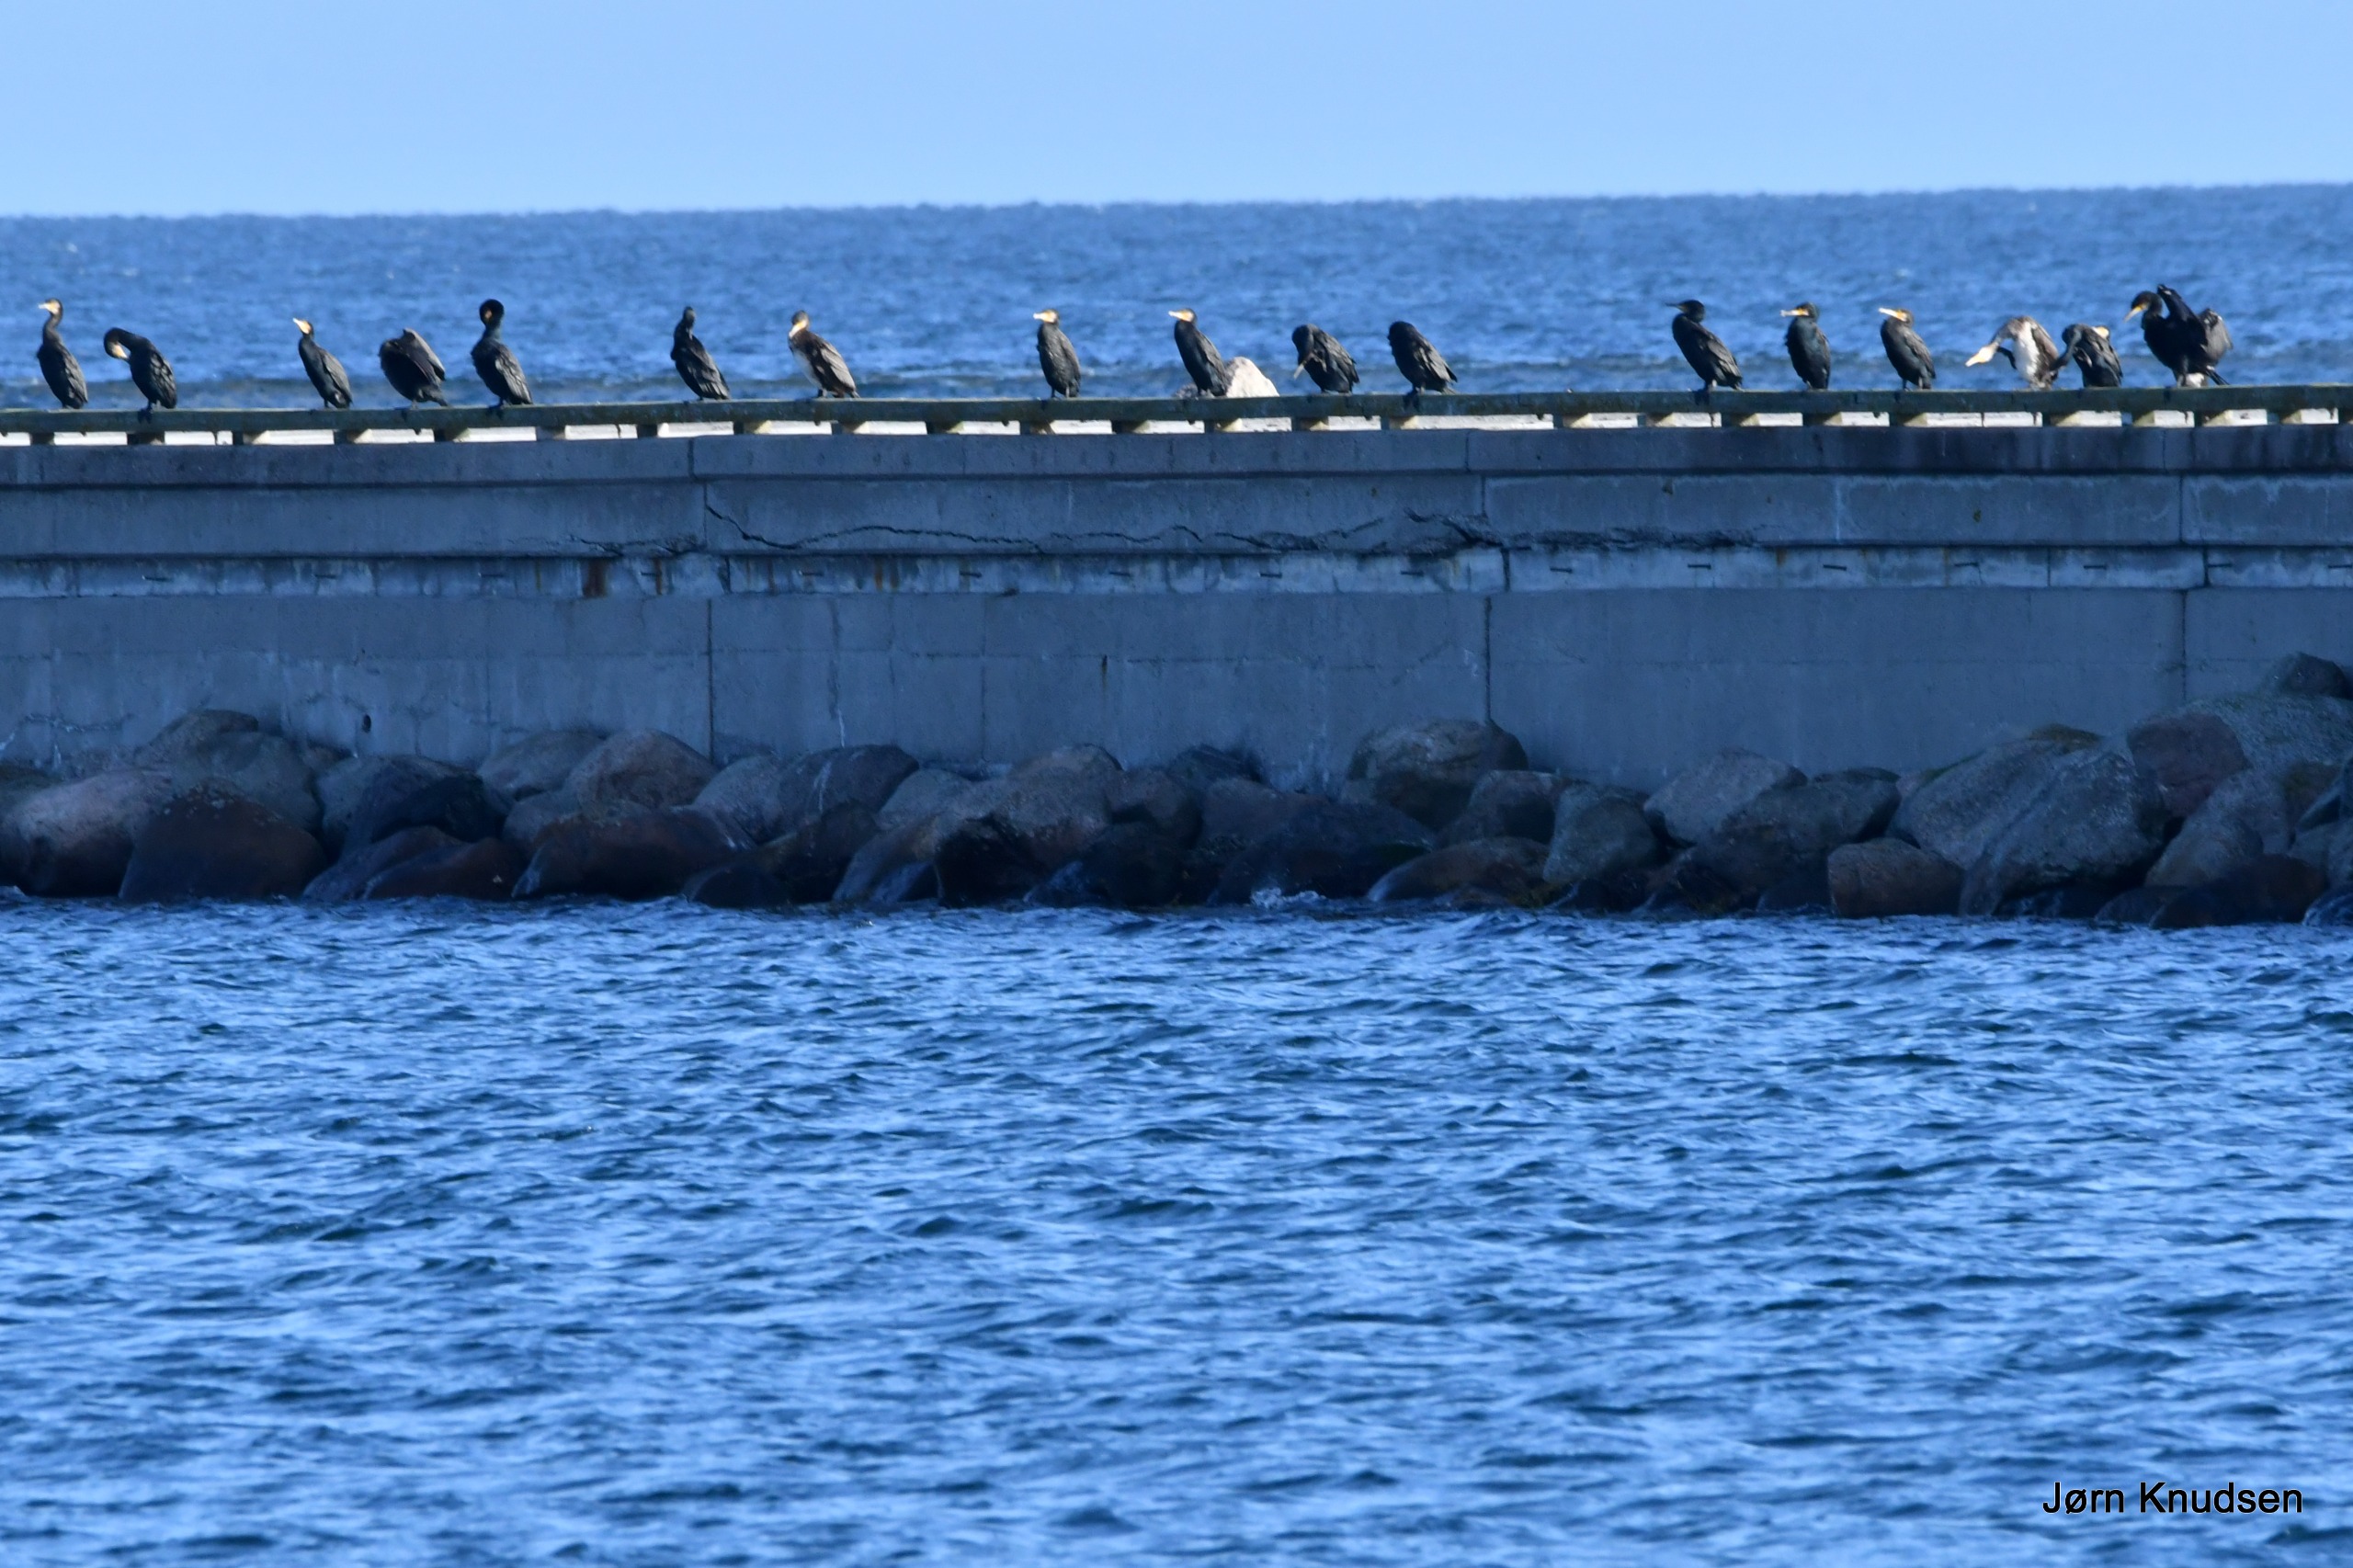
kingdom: Animalia
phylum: Chordata
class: Aves
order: Suliformes
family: Phalacrocoracidae
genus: Phalacrocorax
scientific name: Phalacrocorax carbo
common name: Skarv
